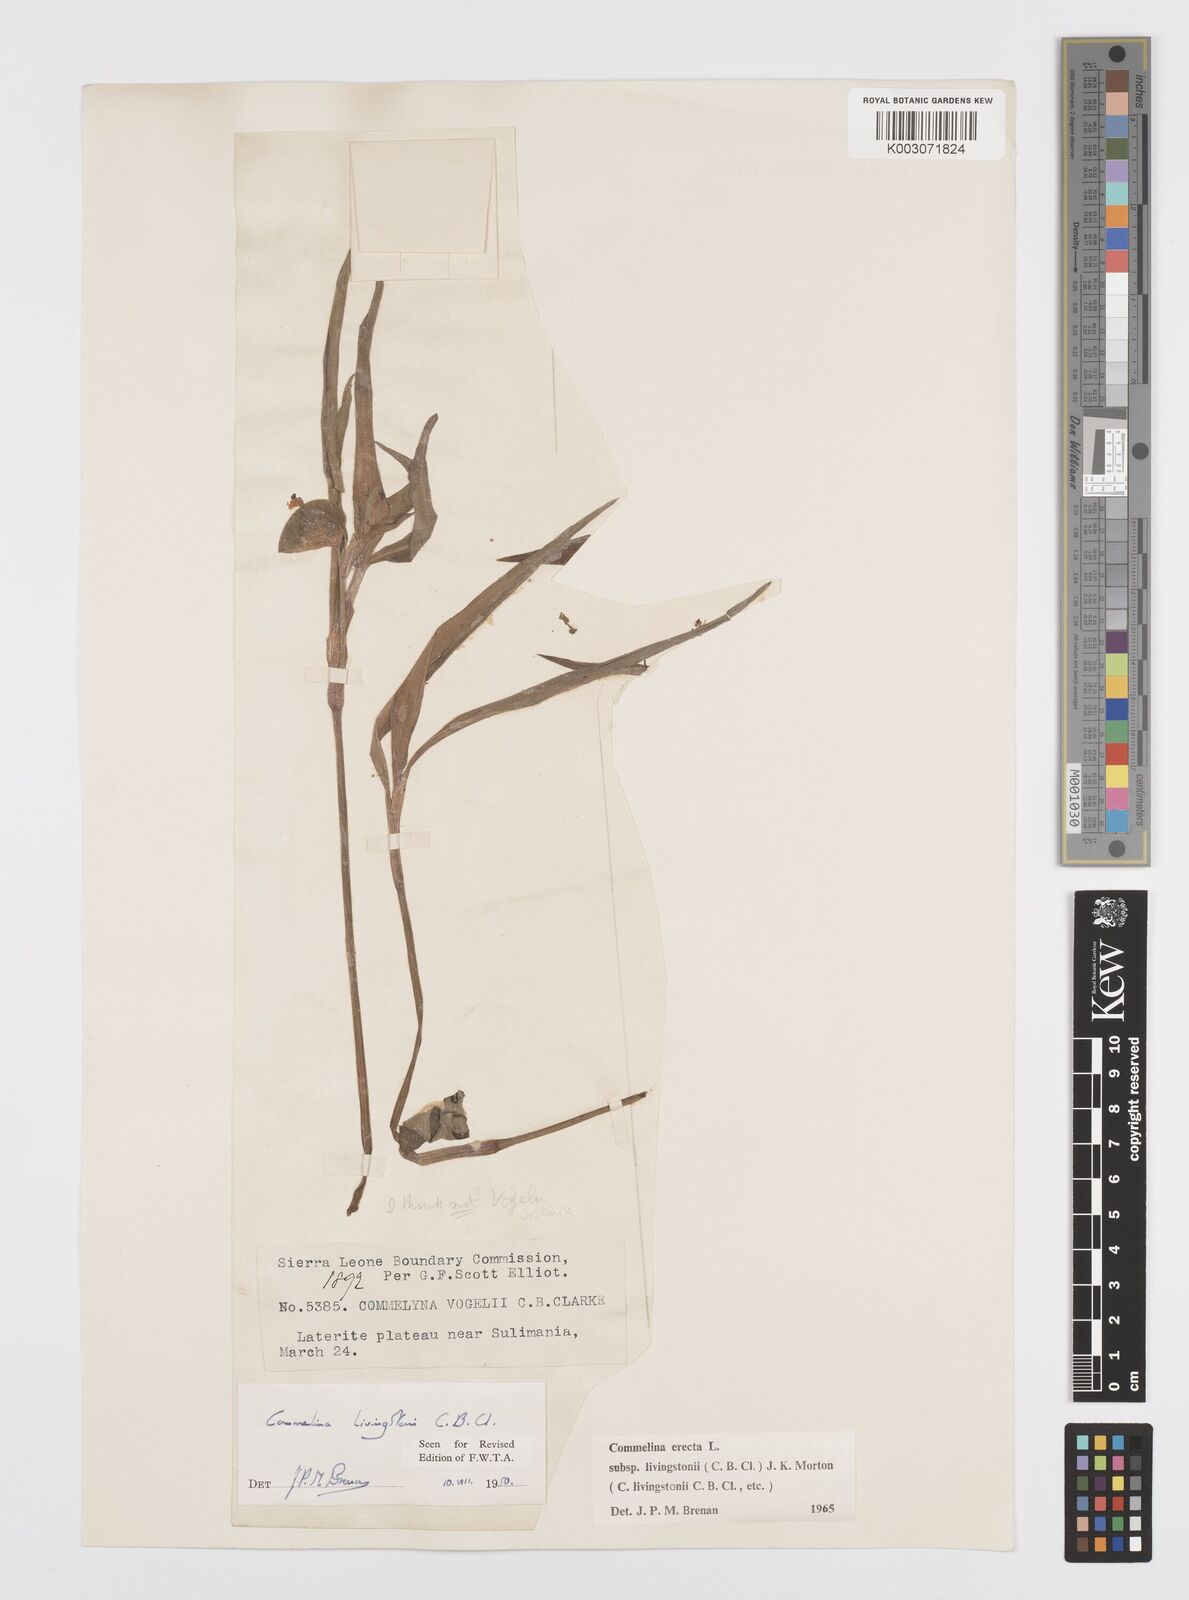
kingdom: Plantae
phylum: Tracheophyta
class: Liliopsida
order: Commelinales
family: Commelinaceae
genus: Commelina
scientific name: Commelina erecta
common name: Blousel blommetjie
